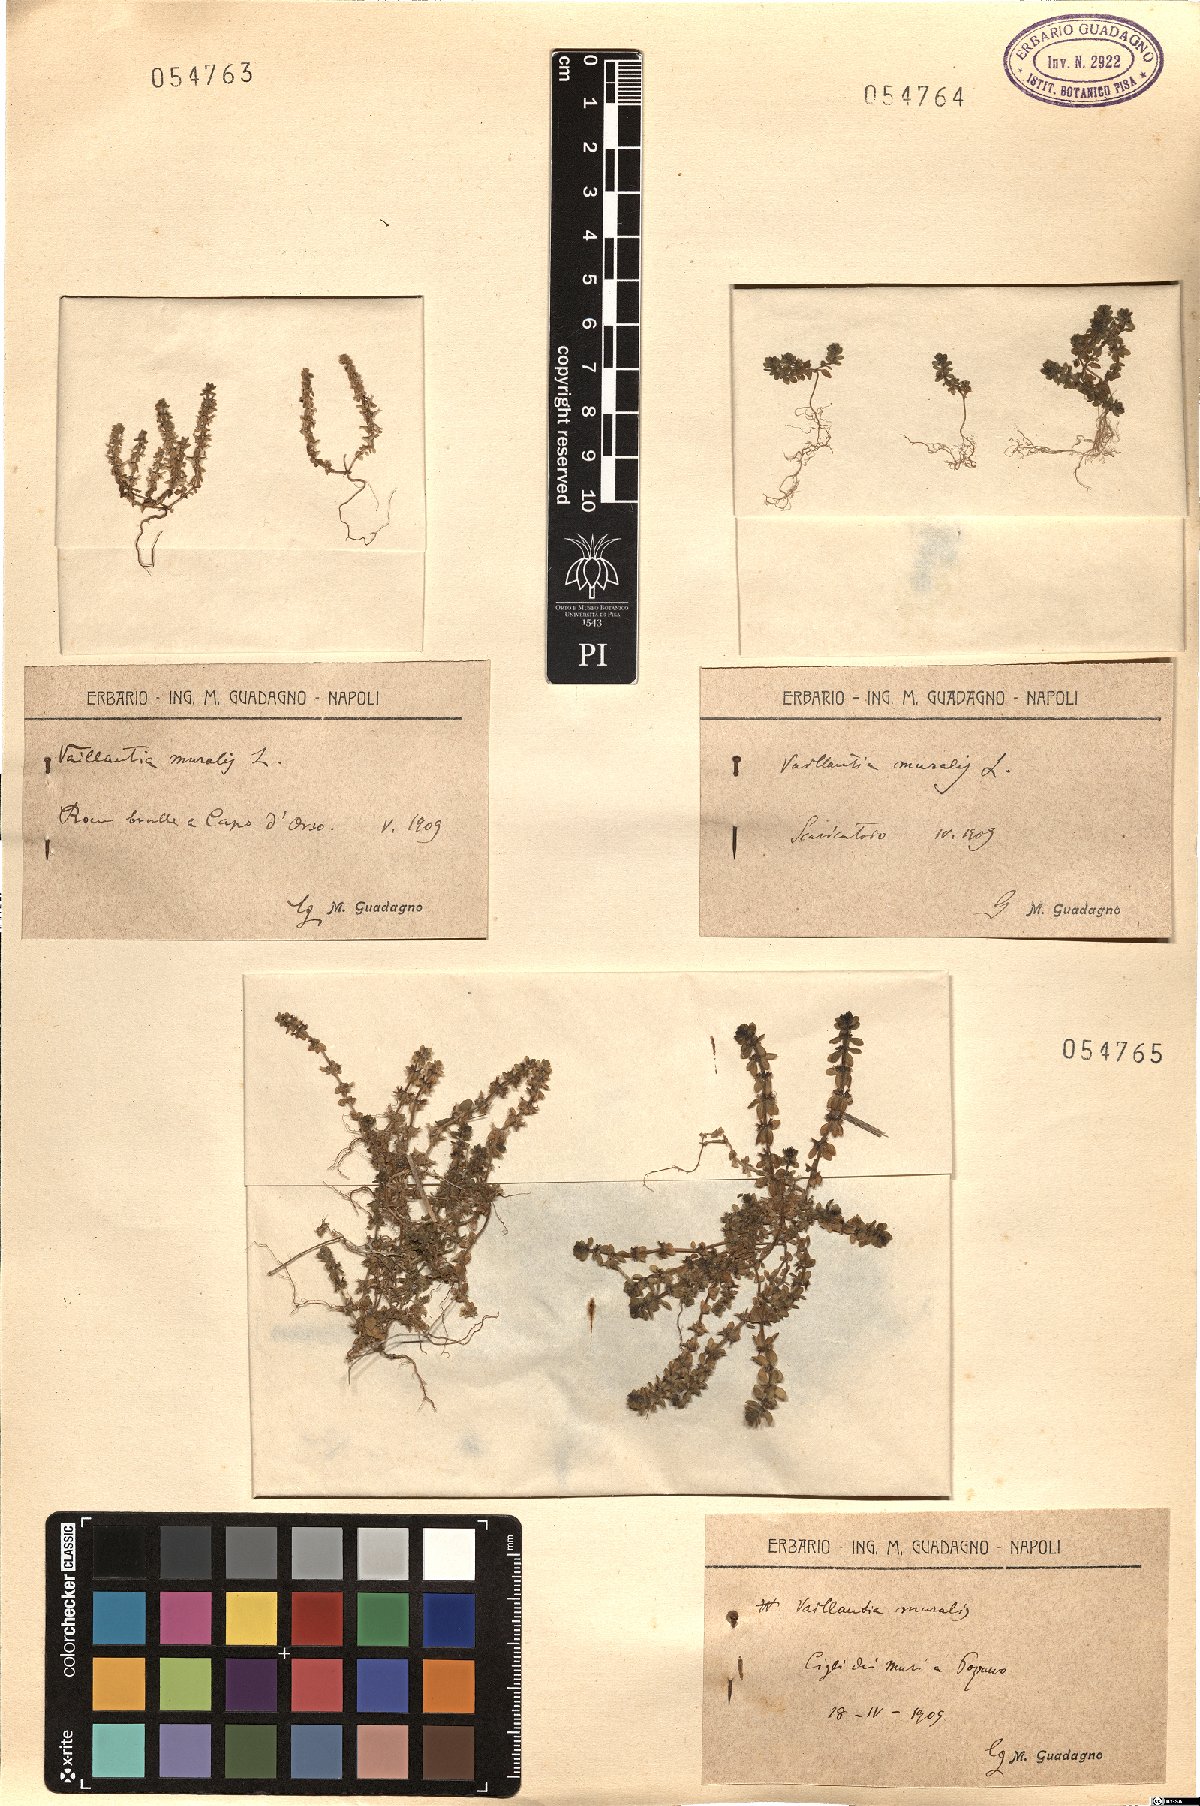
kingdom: Plantae
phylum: Tracheophyta
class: Magnoliopsida
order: Gentianales
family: Rubiaceae
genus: Valantia
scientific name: Valantia muralis
